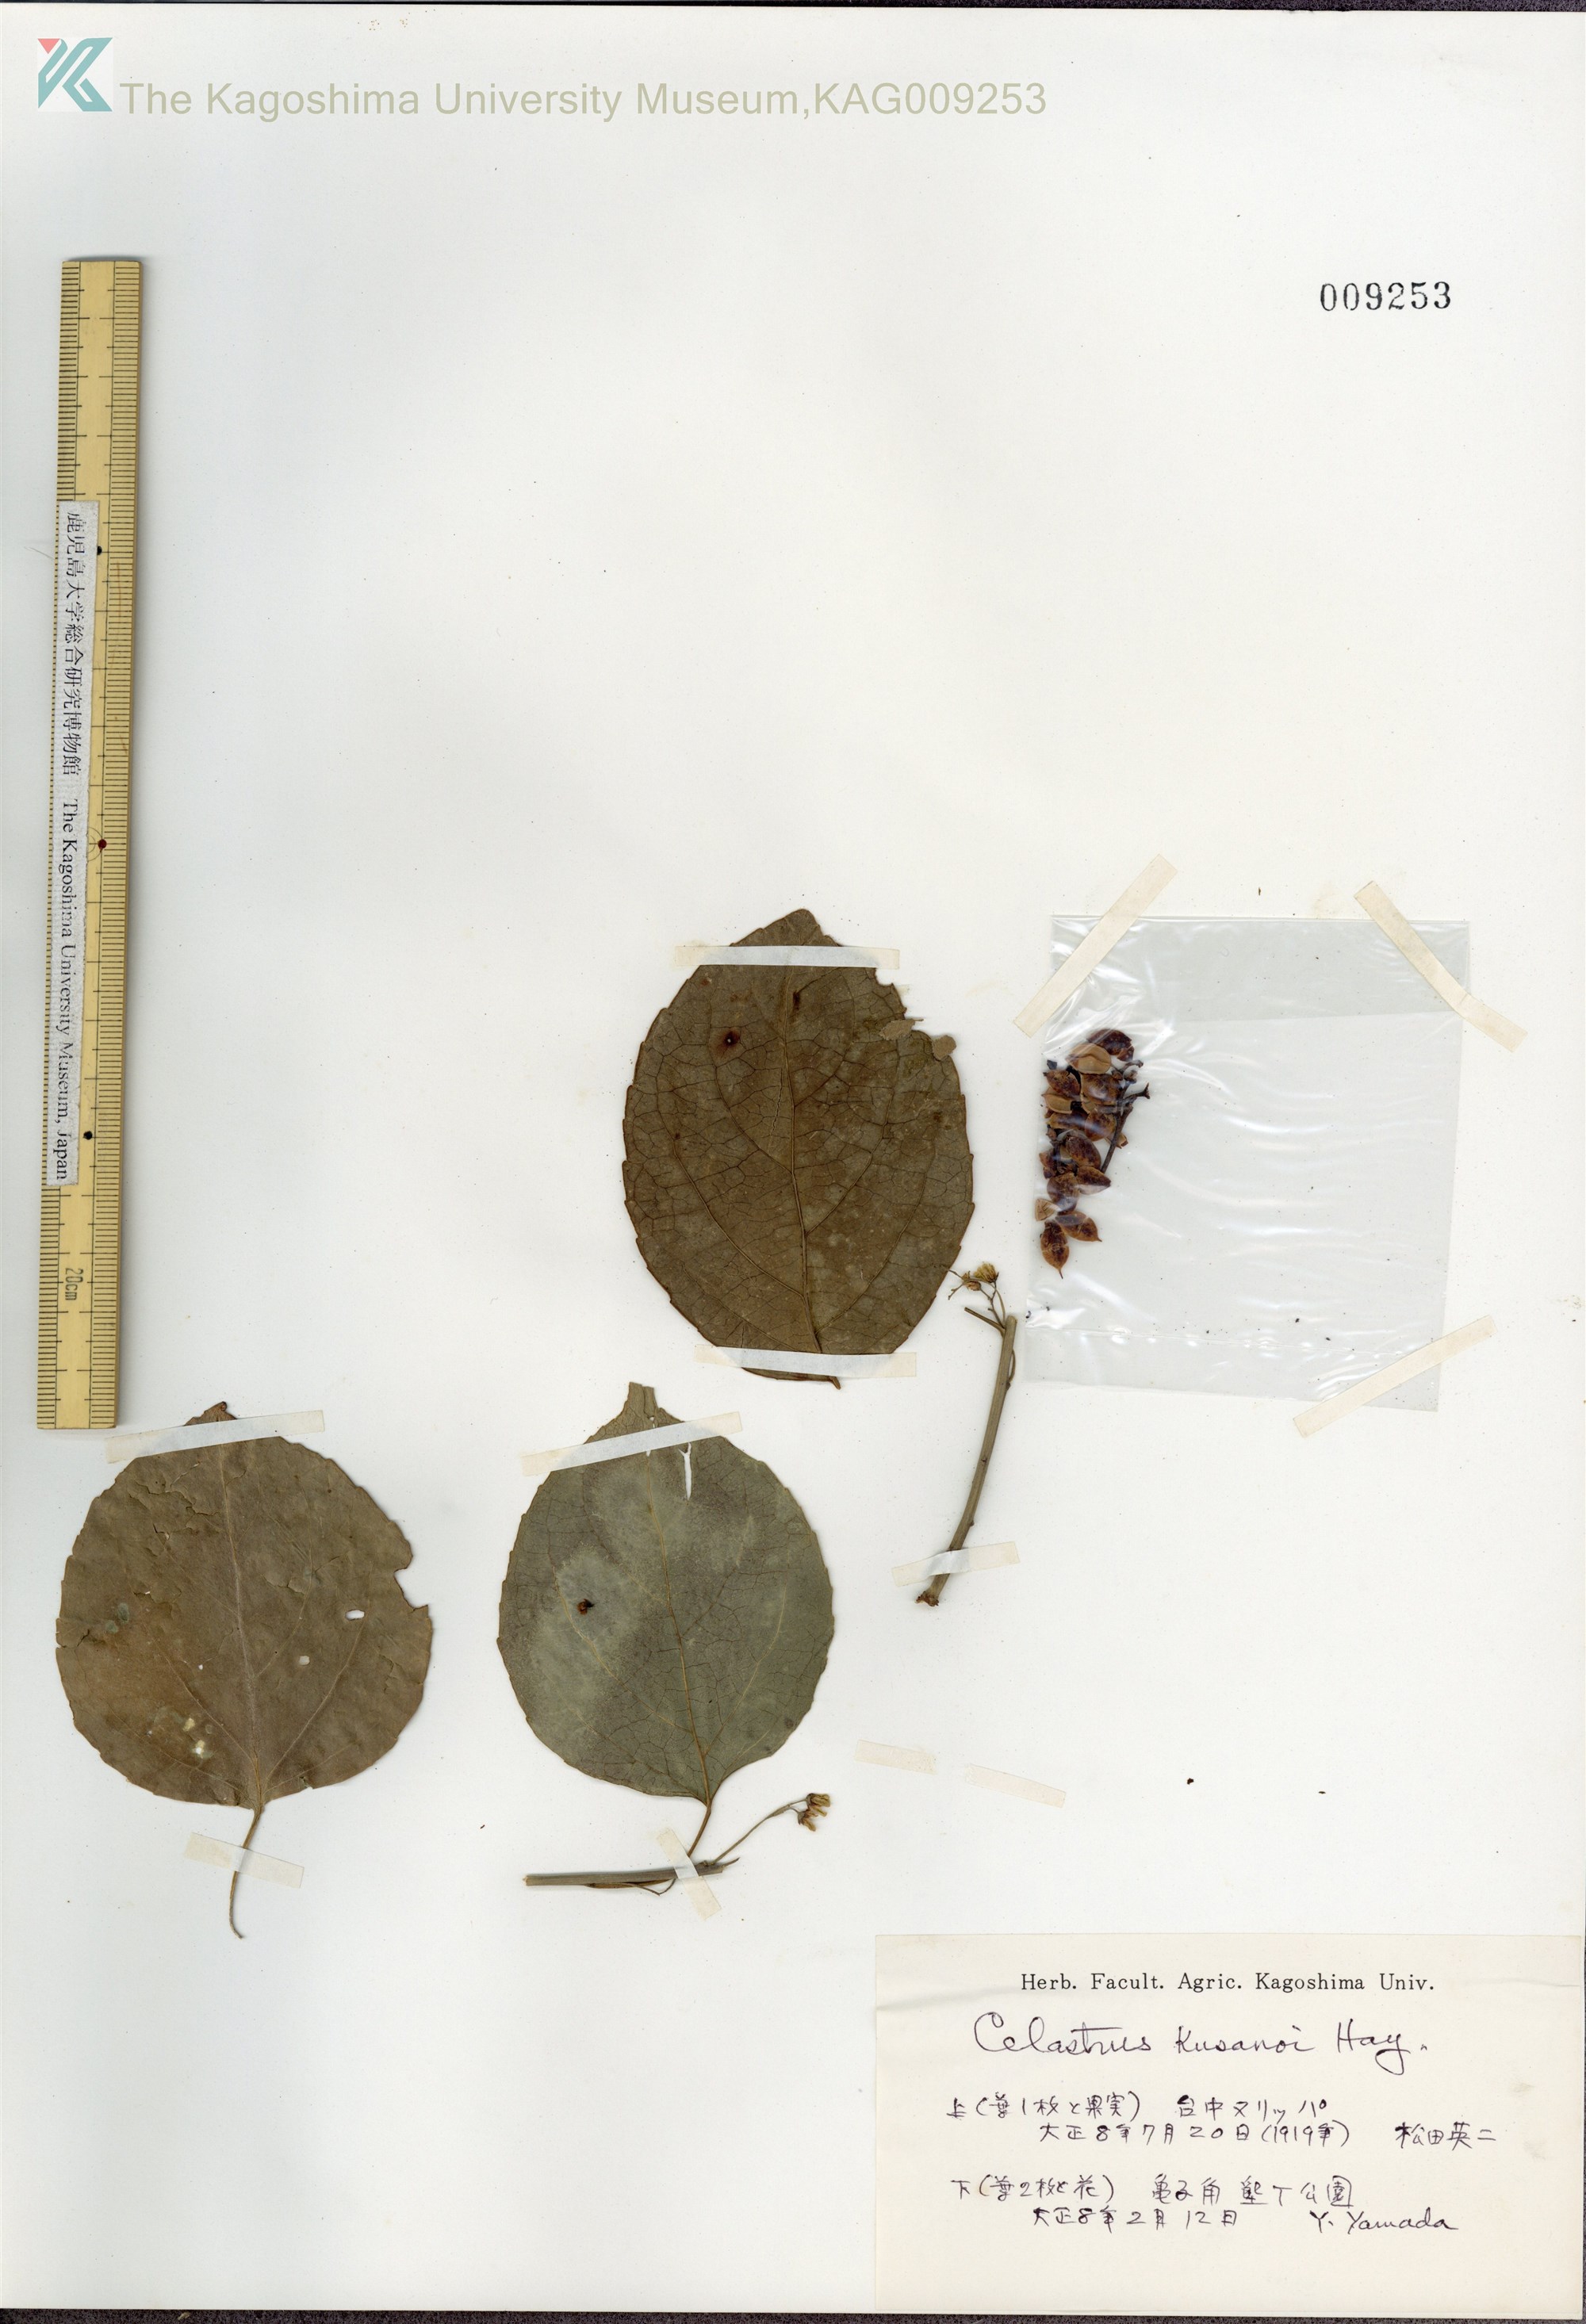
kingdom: Plantae
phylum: Tracheophyta
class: Magnoliopsida
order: Celastrales
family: Celastraceae
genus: Celastrus
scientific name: Celastrus kusanoi
